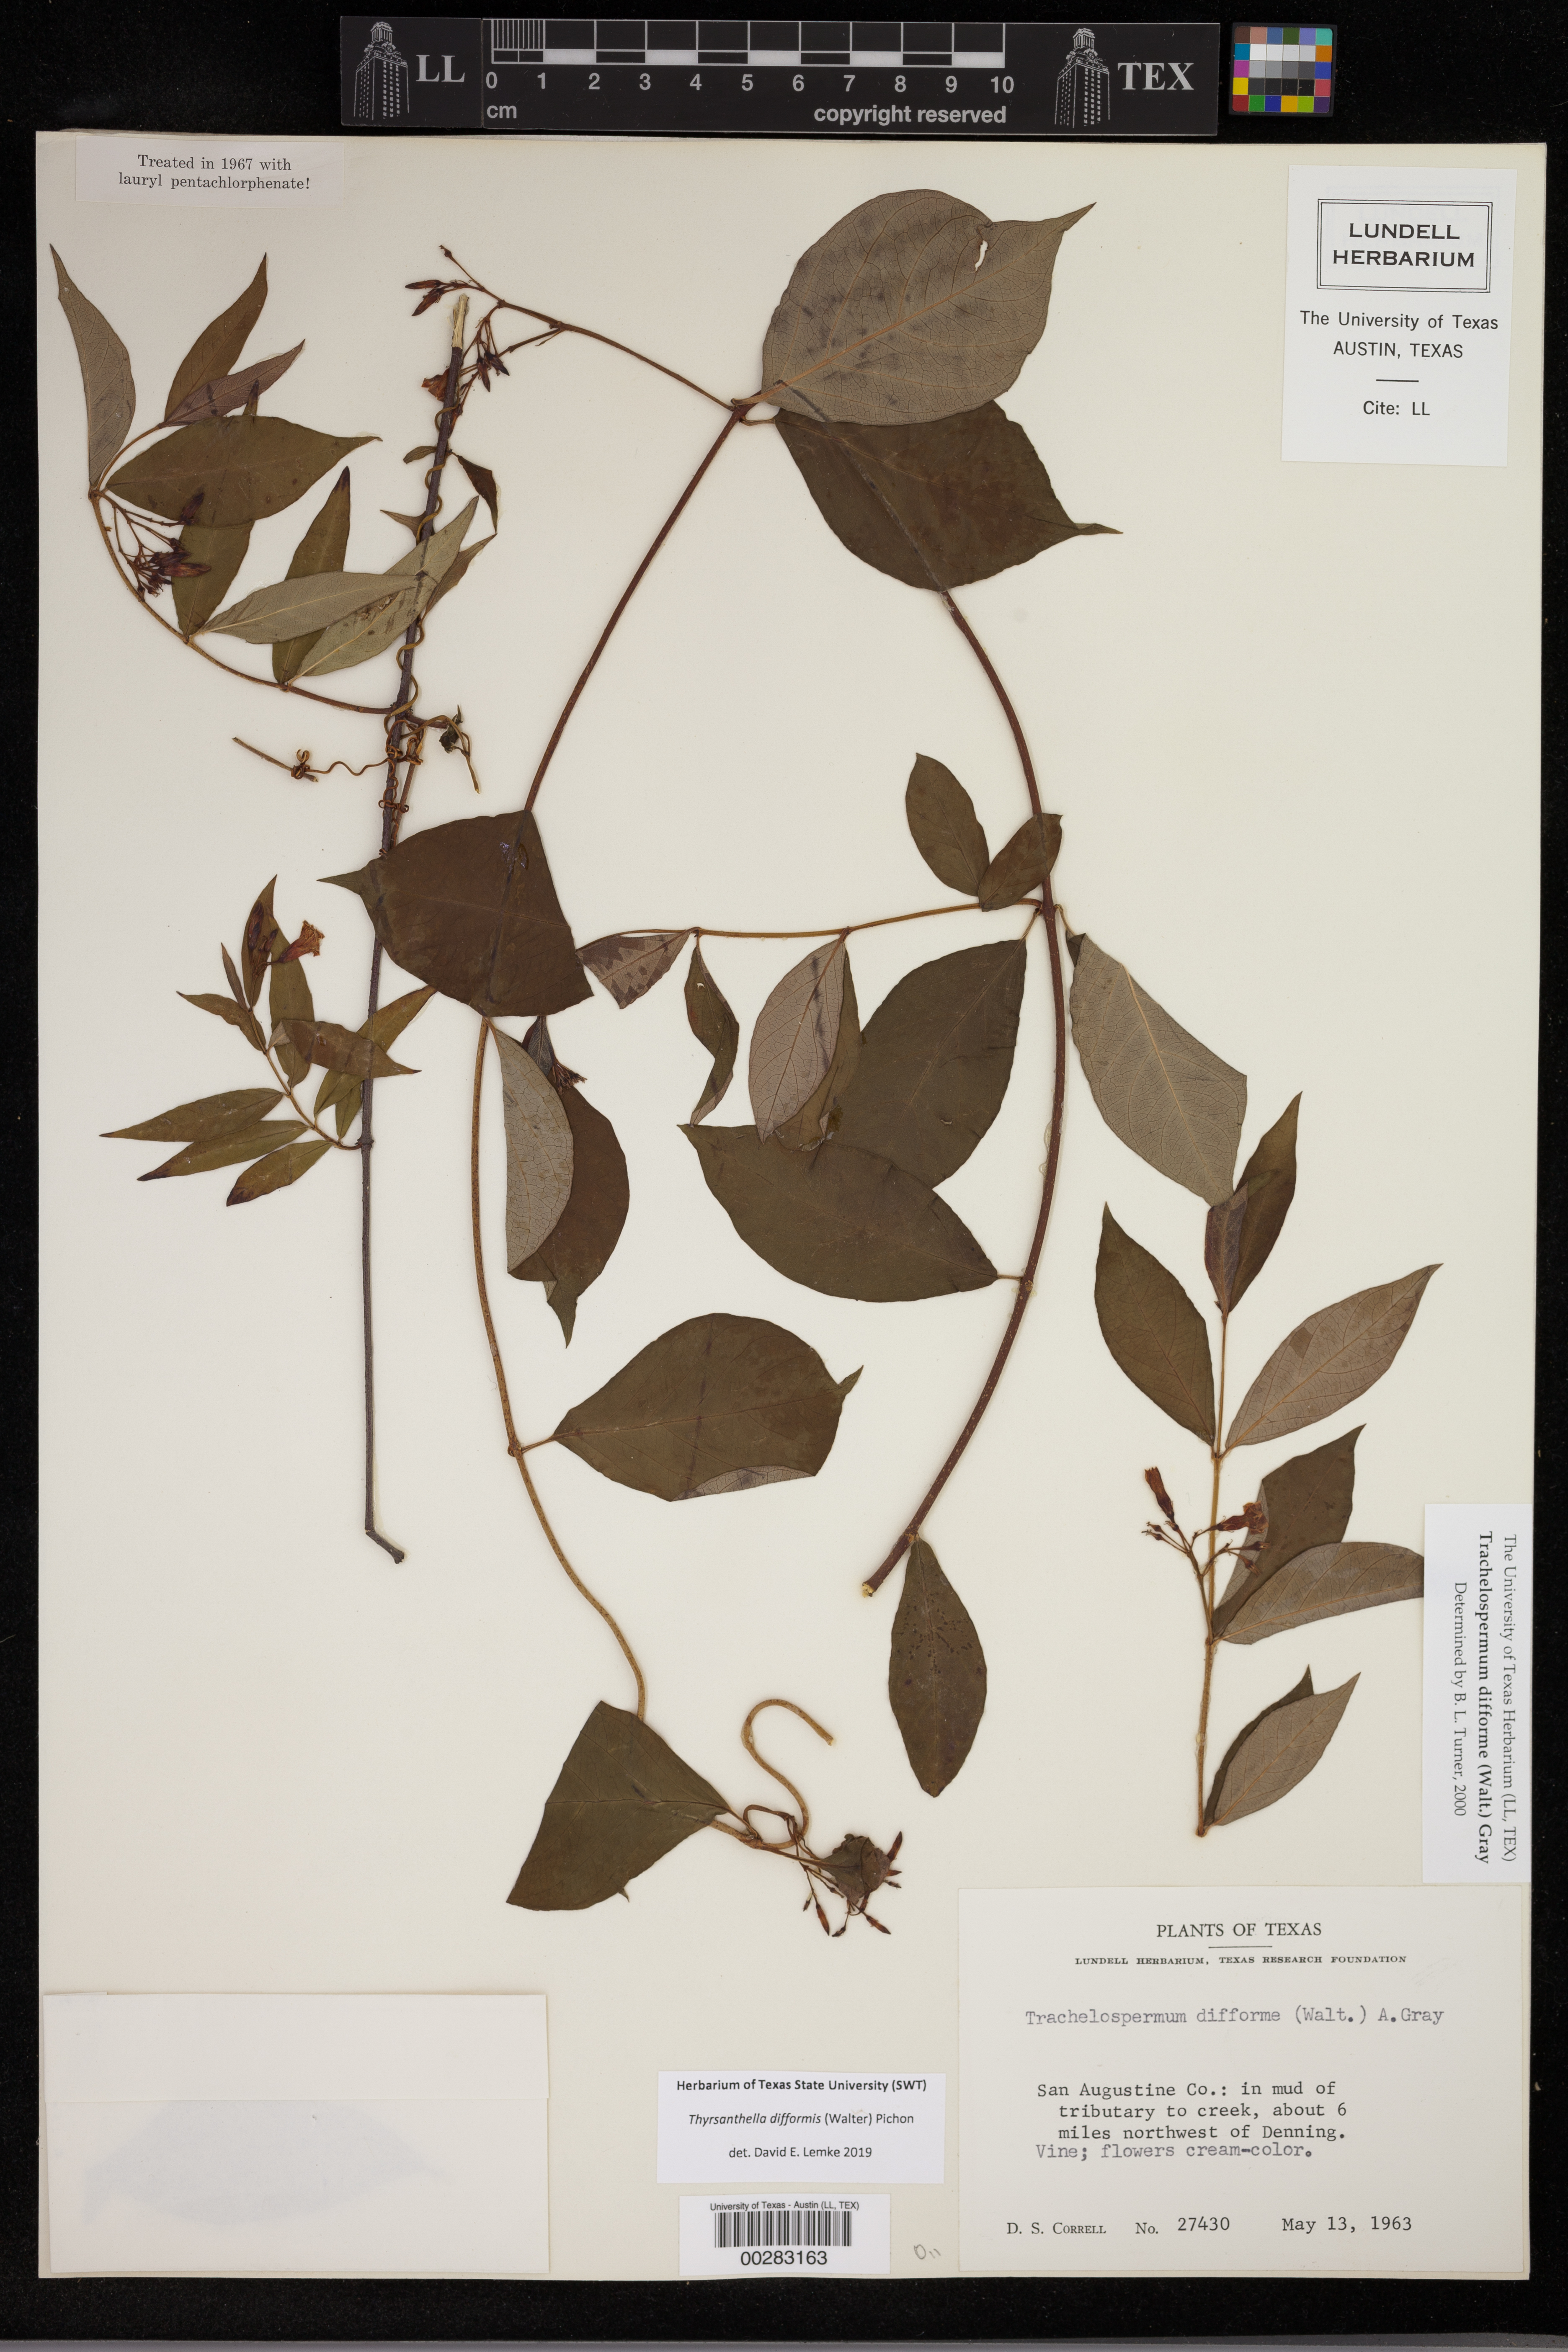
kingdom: Plantae
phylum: Tracheophyta
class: Magnoliopsida
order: Gentianales
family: Apocynaceae
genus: Thyrsanthella
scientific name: Thyrsanthella difformis
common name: Climbing dogbane
